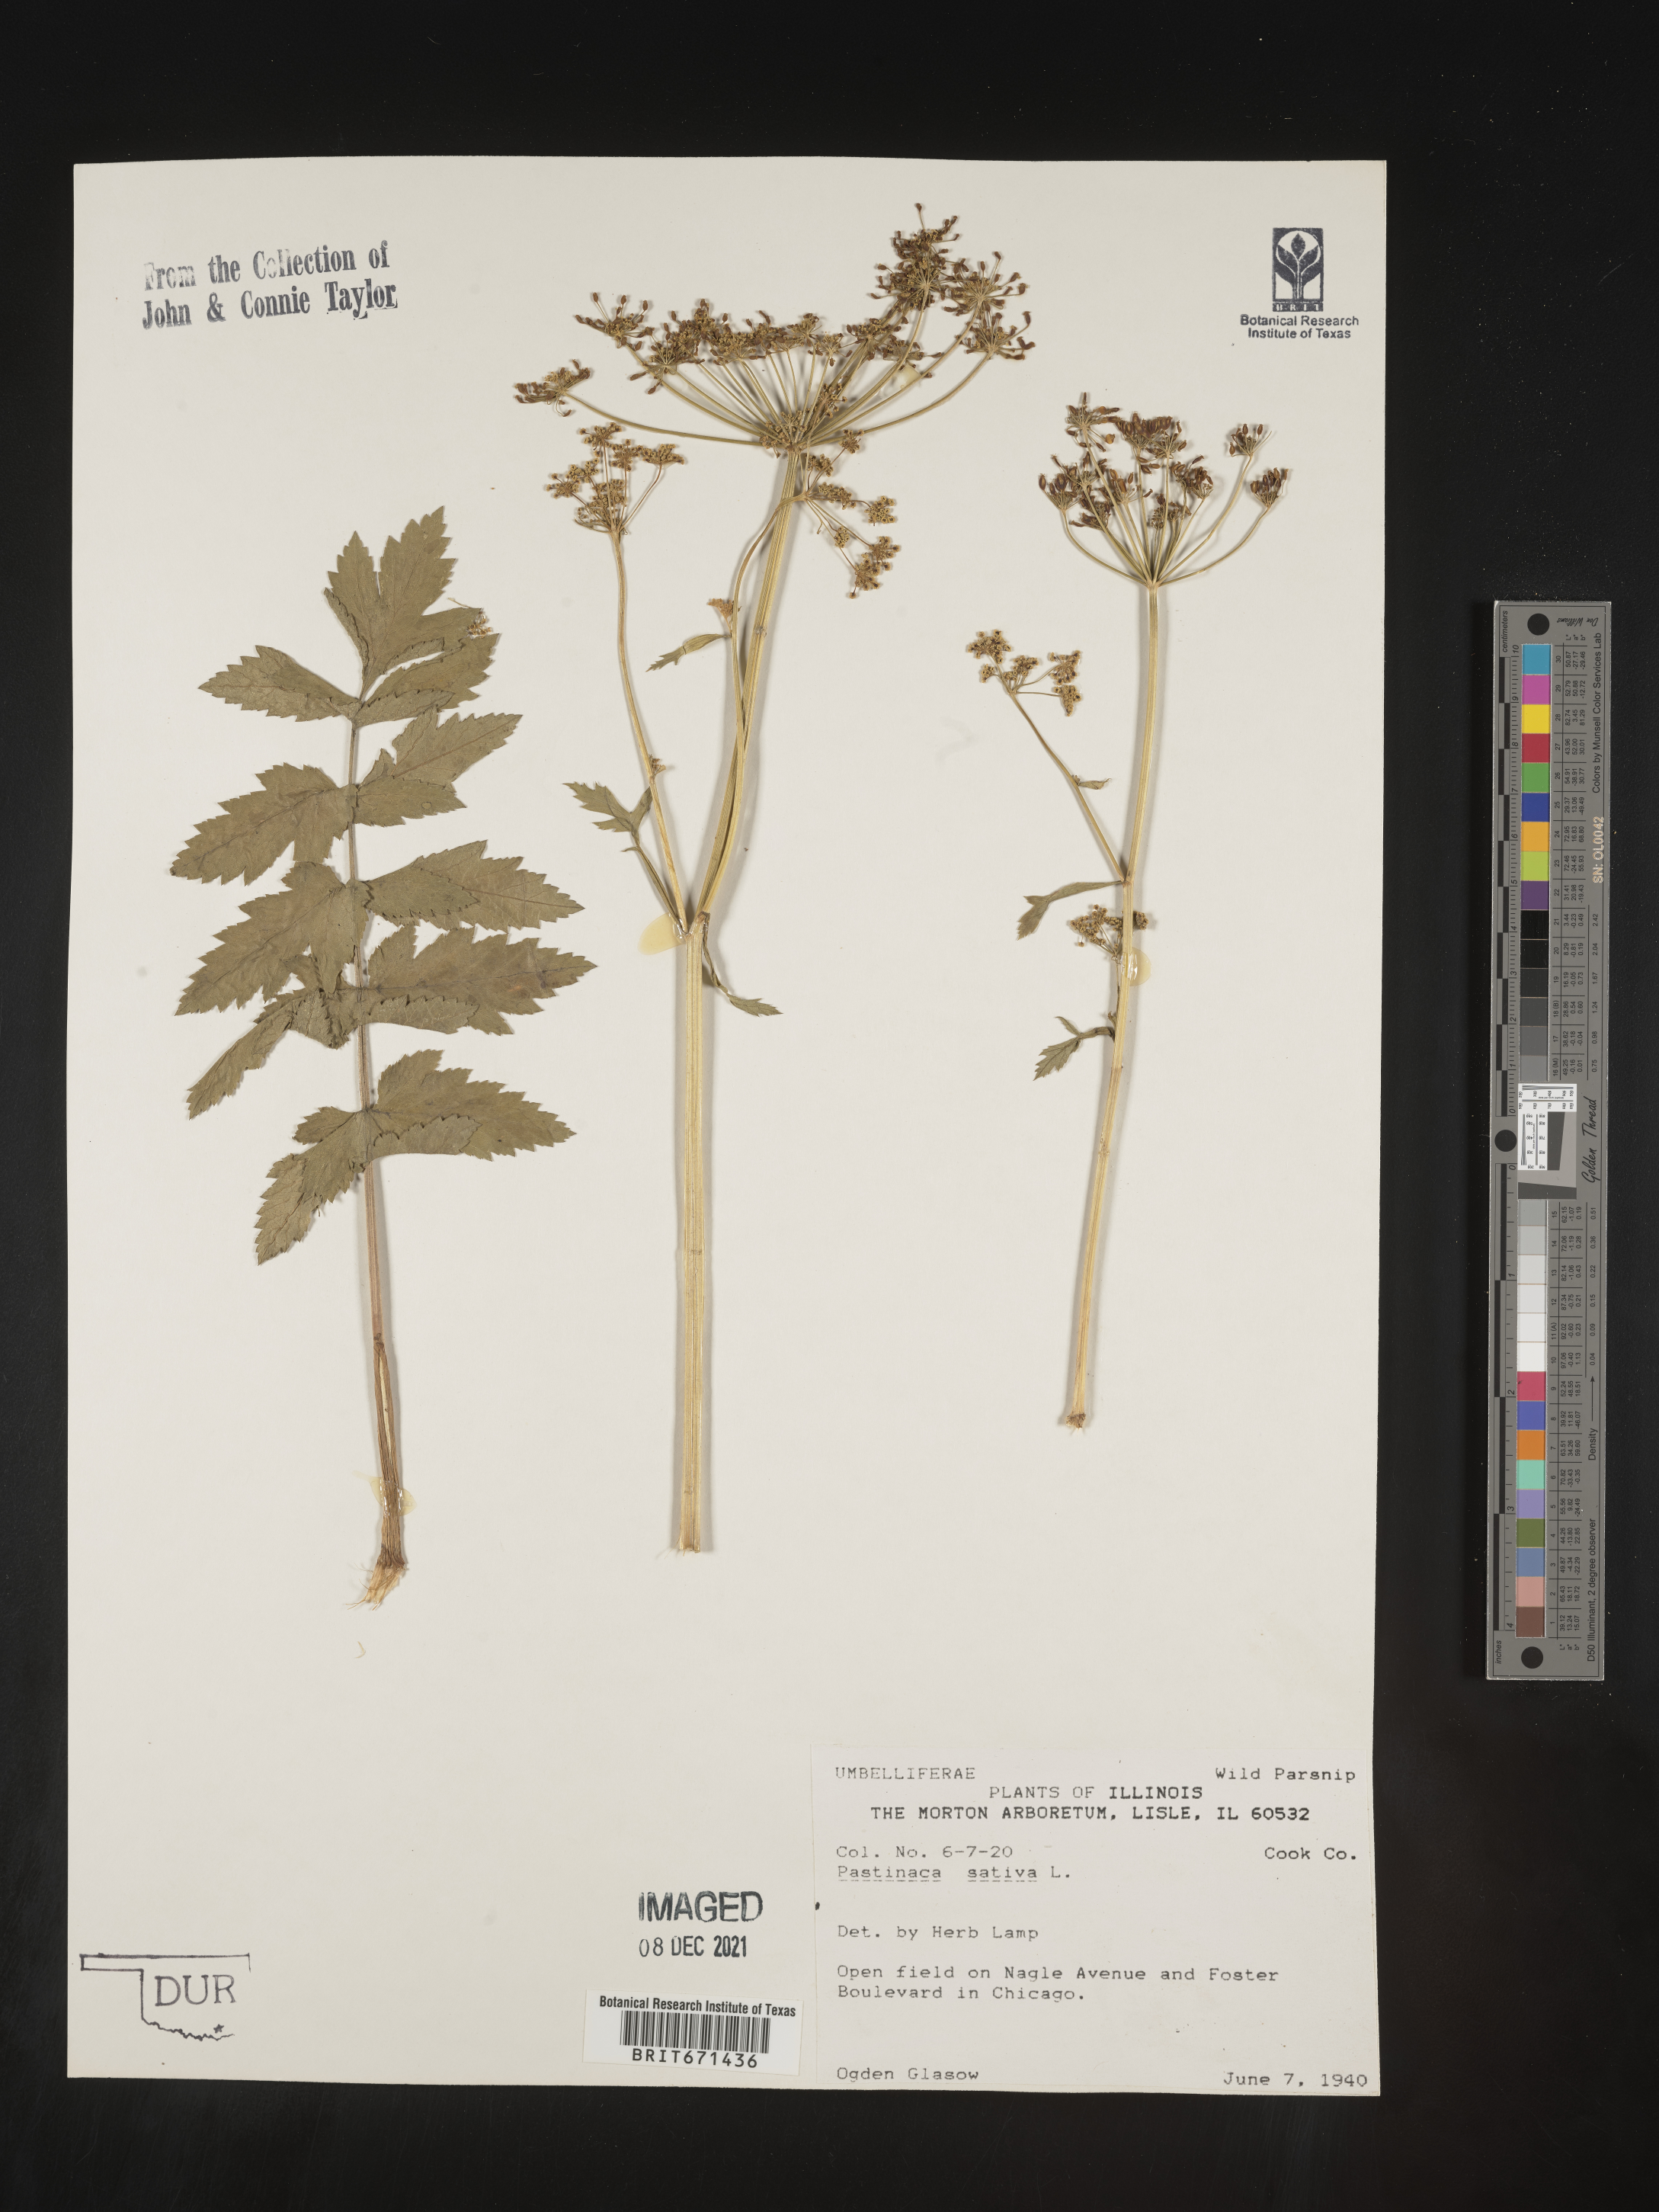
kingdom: Plantae
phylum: Tracheophyta
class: Magnoliopsida
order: Apiales
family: Apiaceae
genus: Pastinaca
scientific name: Pastinaca
